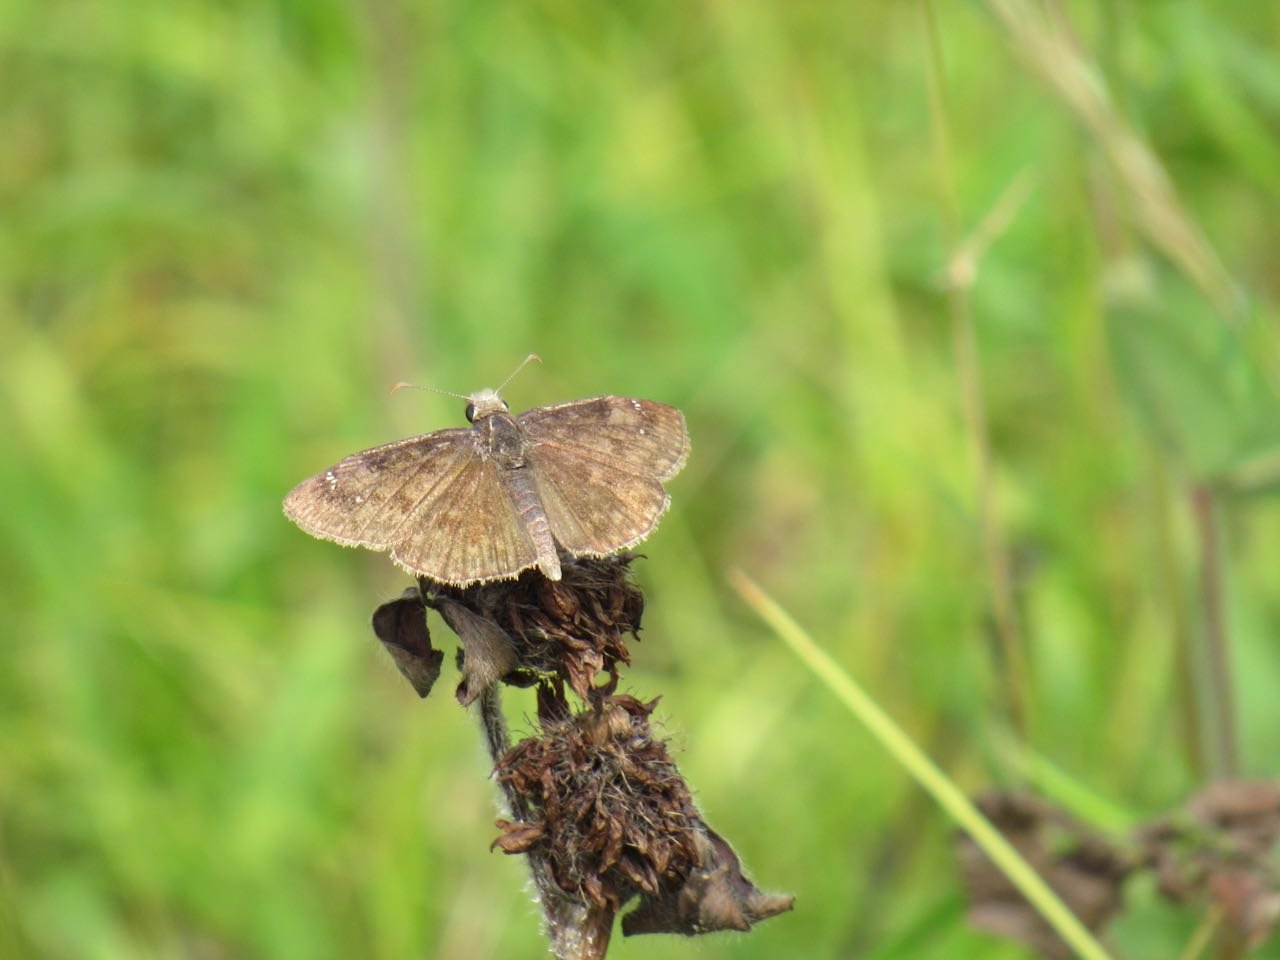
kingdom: Animalia
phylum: Arthropoda
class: Insecta
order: Lepidoptera
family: Hesperiidae
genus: Gesta
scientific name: Gesta
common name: Wild Indigo Duskywing
